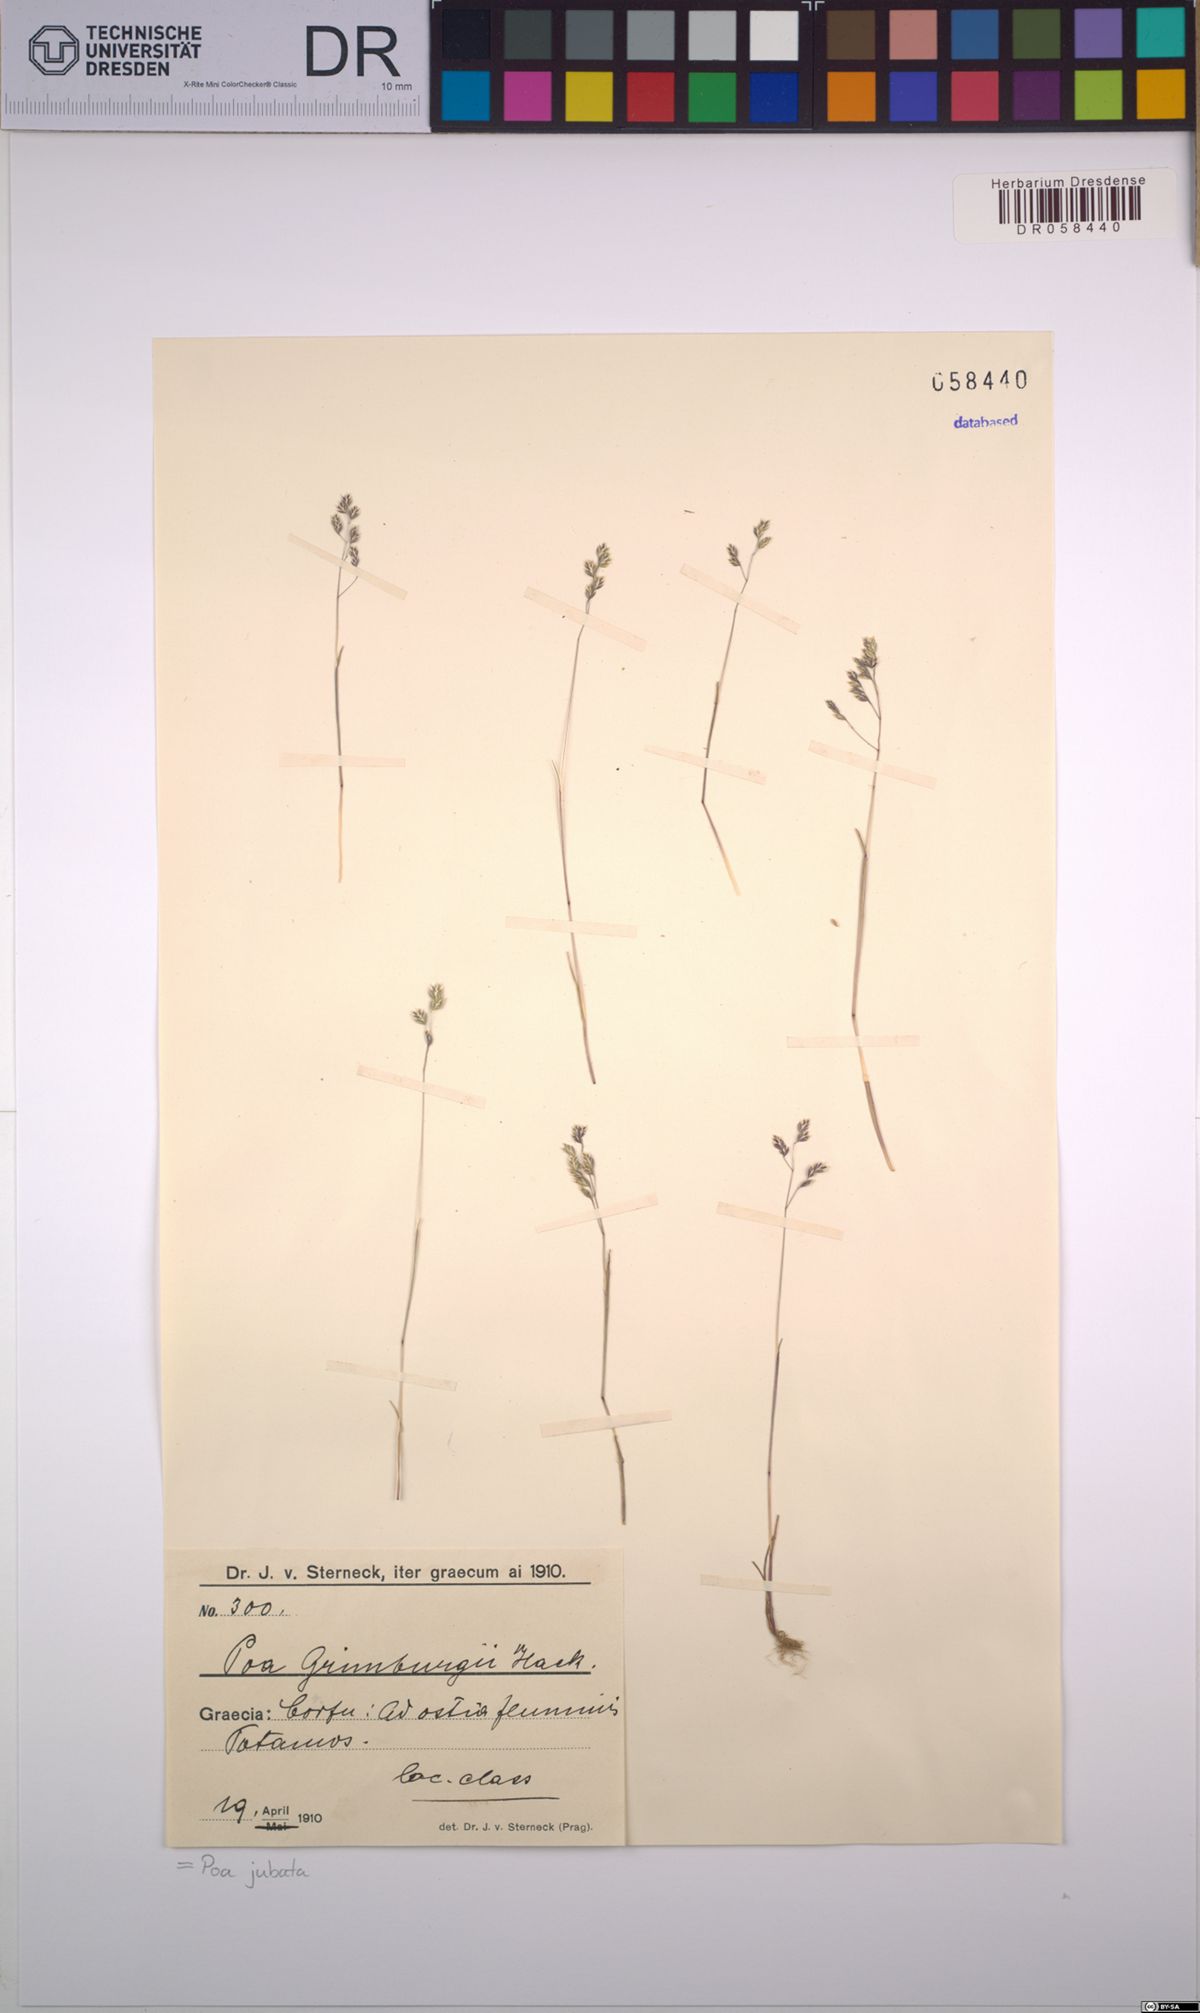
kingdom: Plantae
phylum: Tracheophyta
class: Liliopsida
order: Poales
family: Poaceae
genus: Poa
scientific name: Poa jubata
